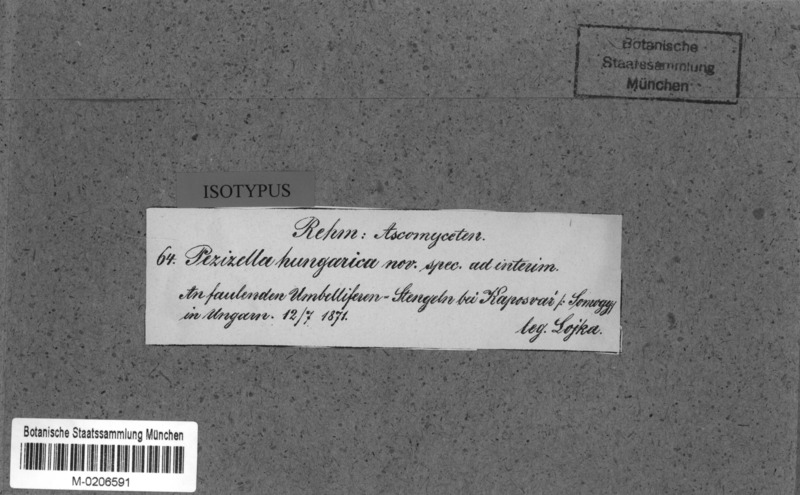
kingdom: Fungi
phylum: Ascomycota
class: Leotiomycetes
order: Helotiales
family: Hyaloscyphaceae
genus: Cistella
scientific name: Cistella hungarica
